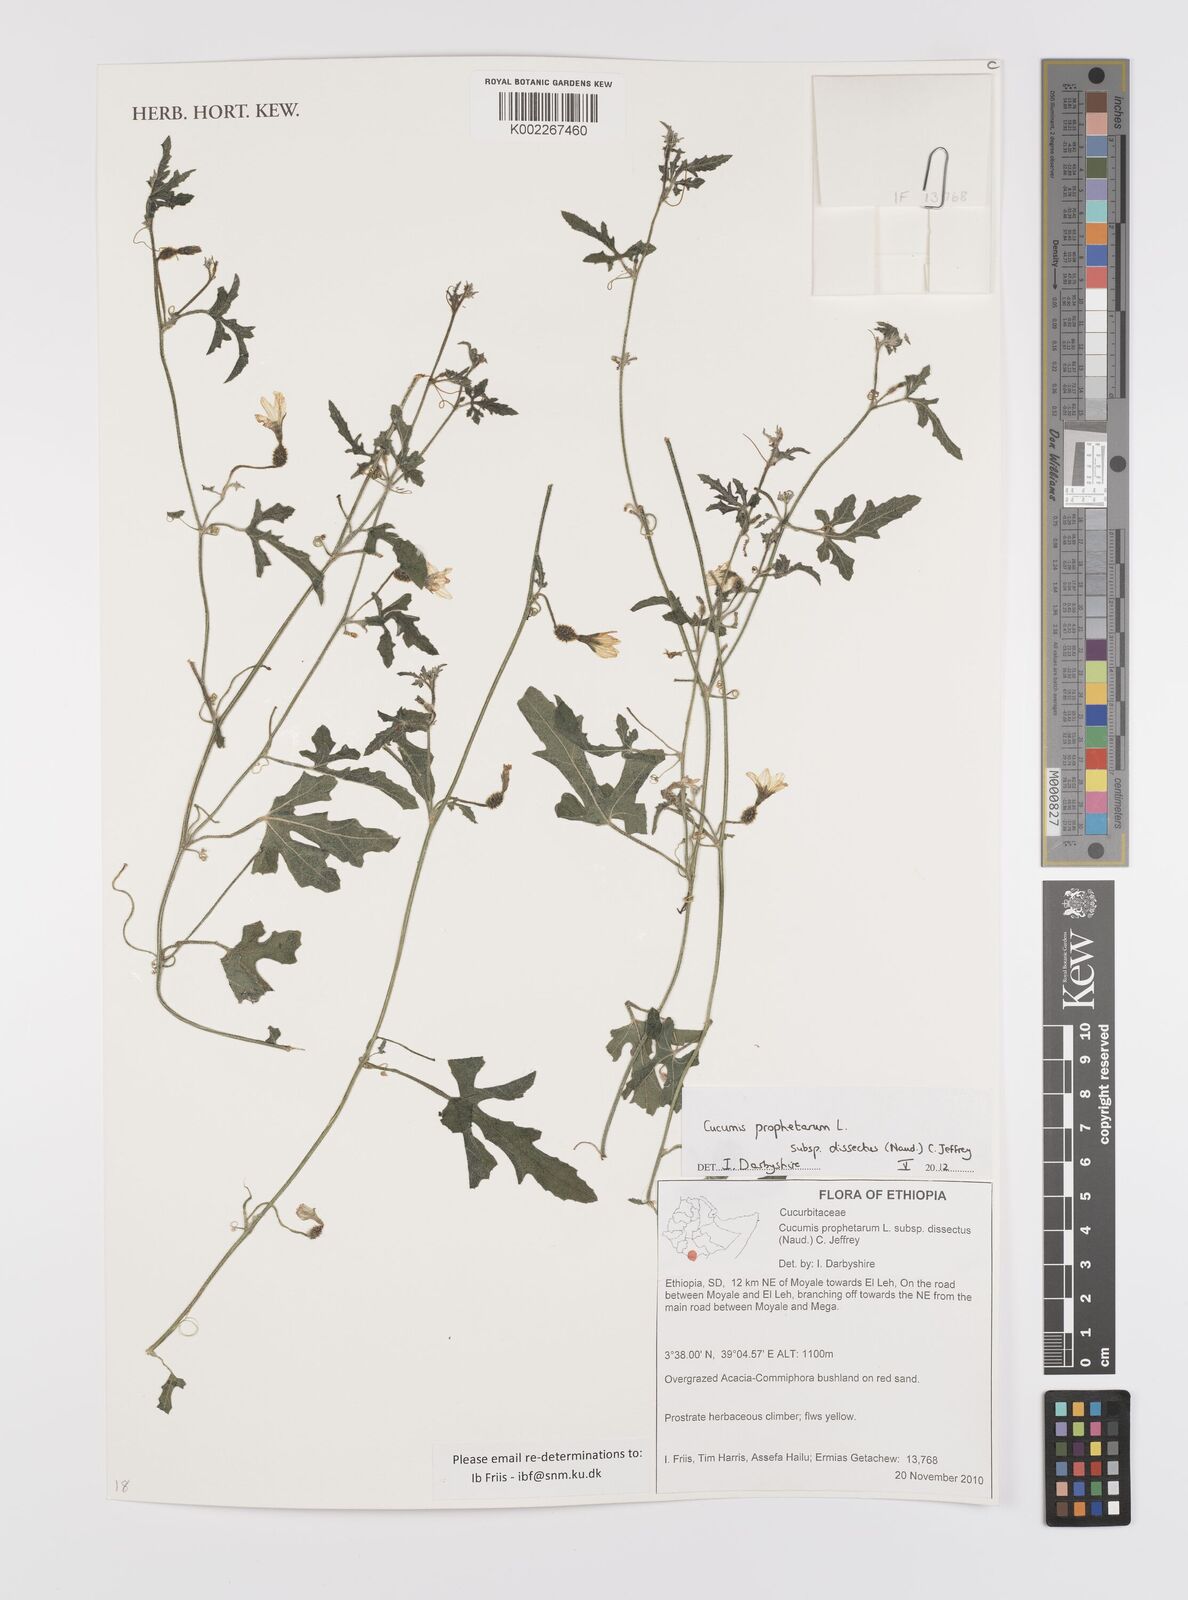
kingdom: Plantae
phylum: Tracheophyta
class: Magnoliopsida
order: Cucurbitales
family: Cucurbitaceae
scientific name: Cucurbitaceae
